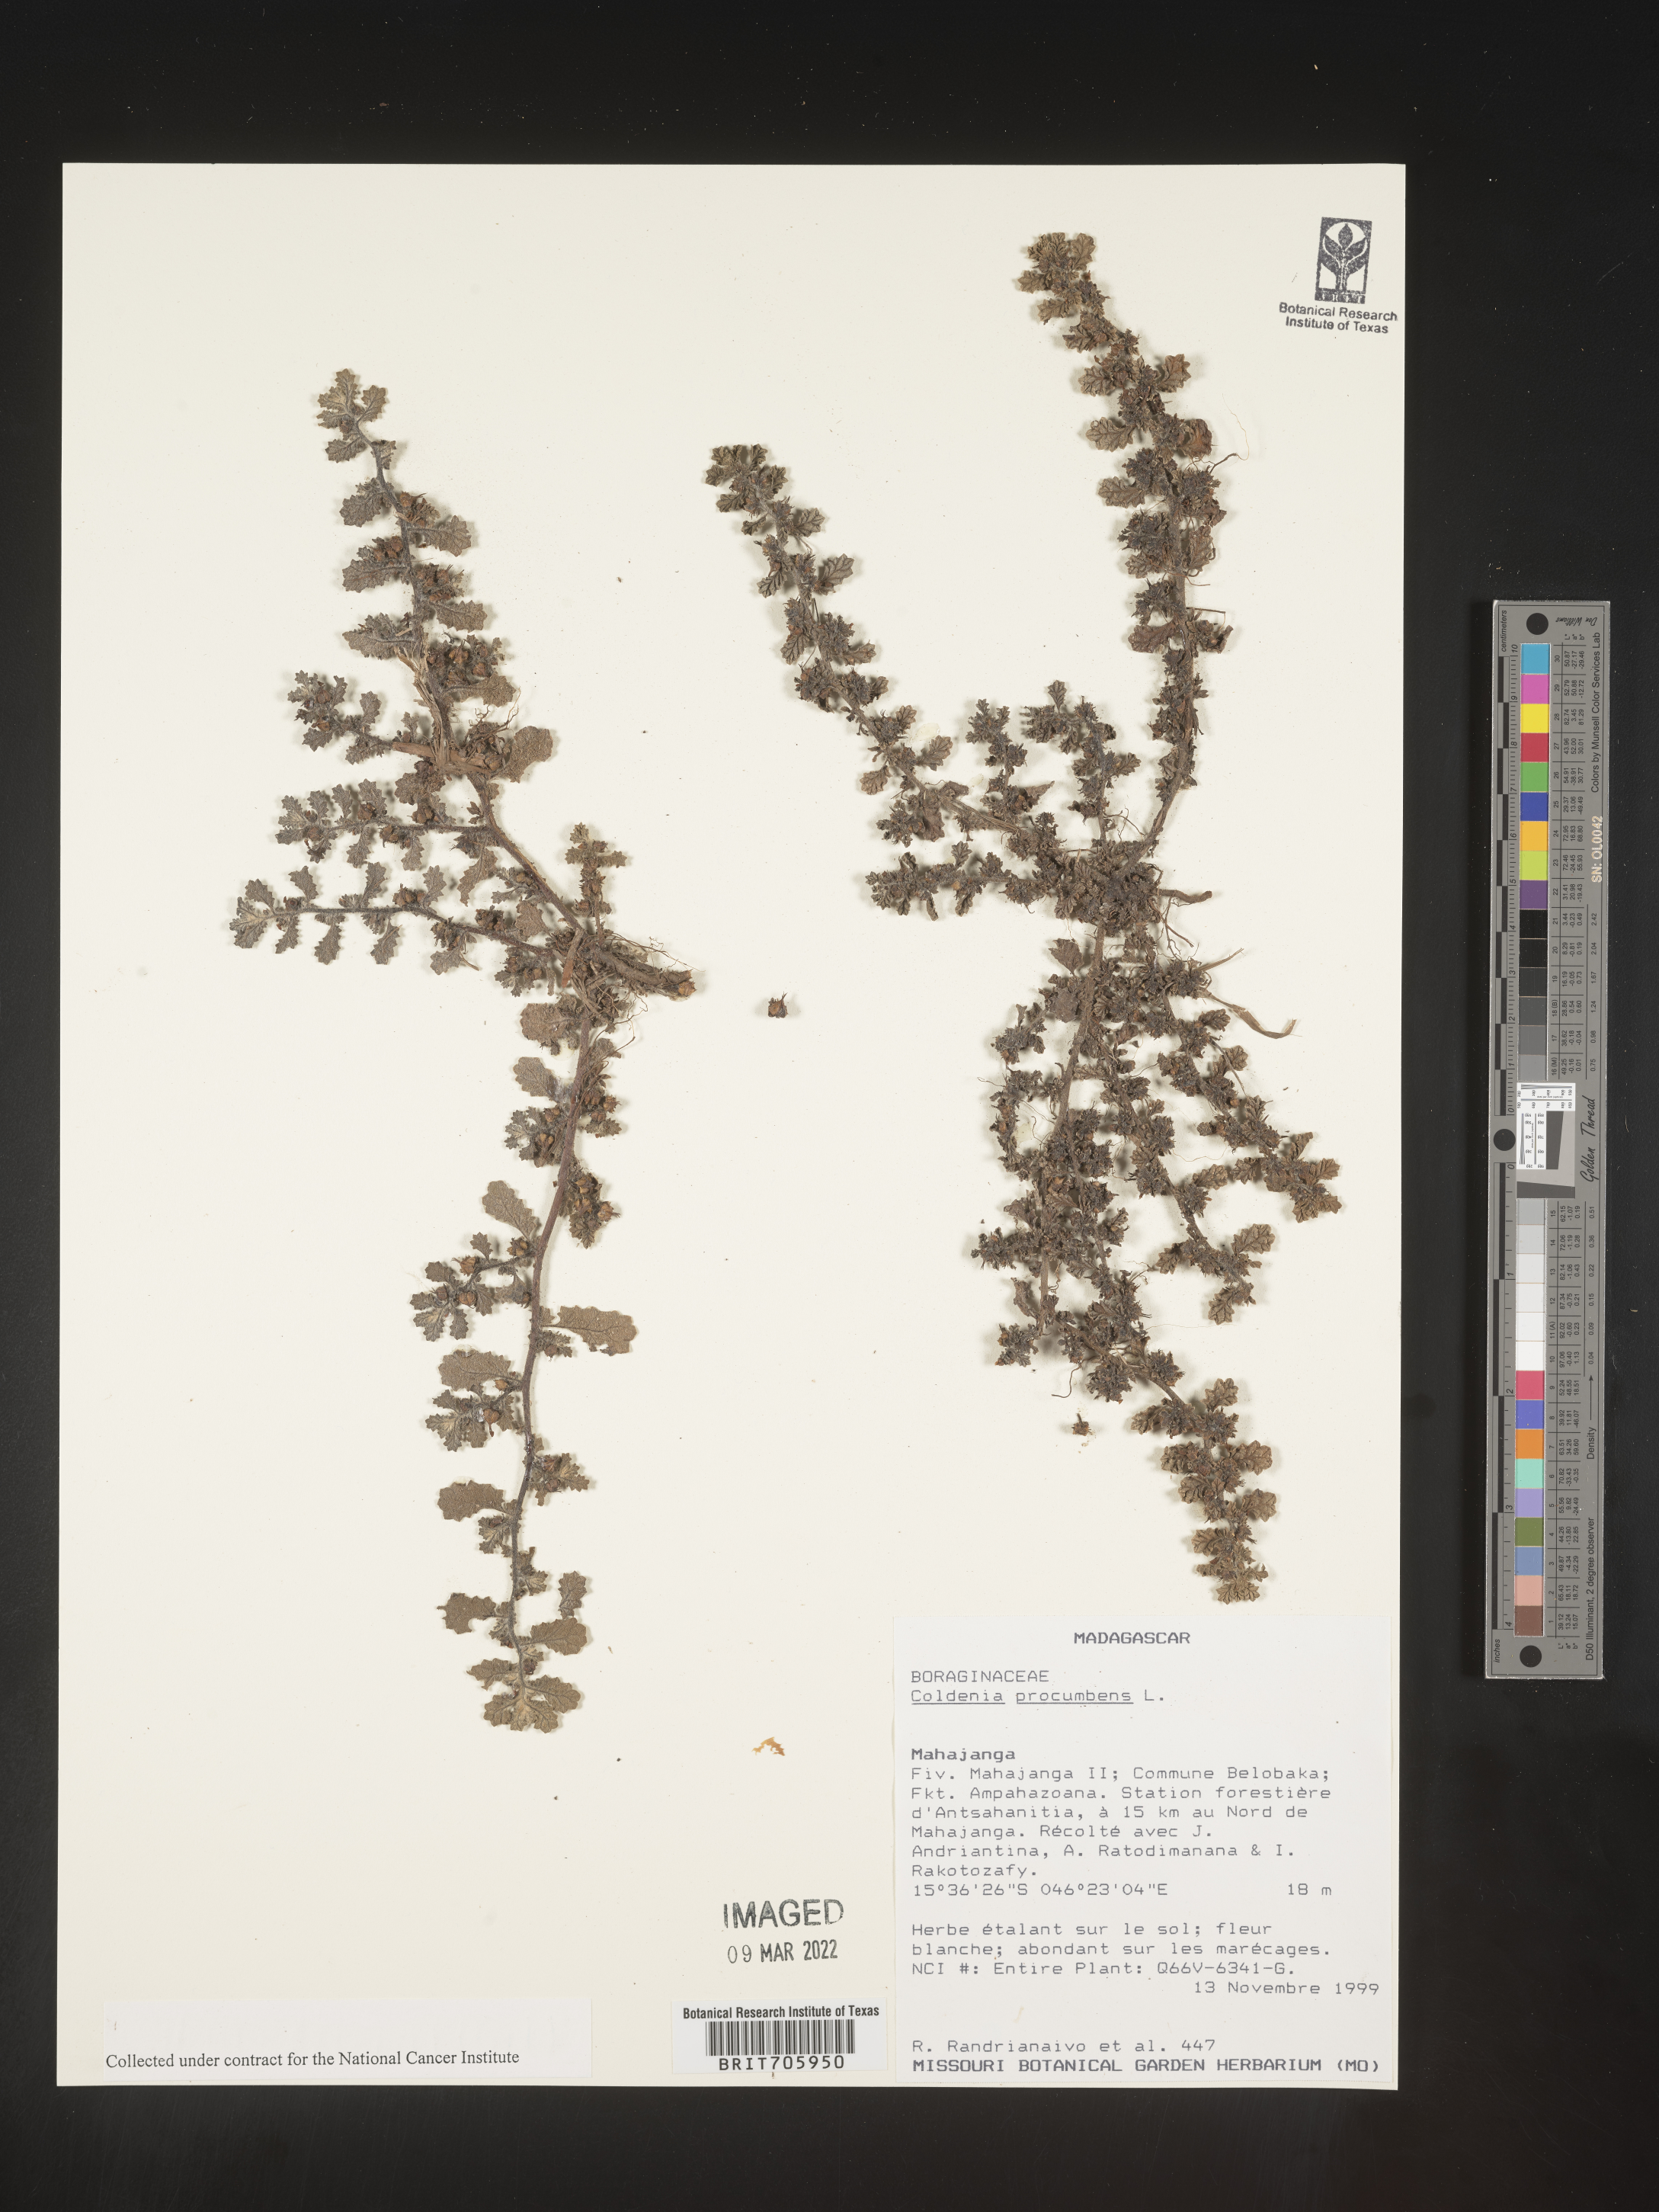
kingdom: Plantae
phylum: Tracheophyta
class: Magnoliopsida
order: Boraginales
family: Coldeniaceae
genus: Coldenia
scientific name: Coldenia
